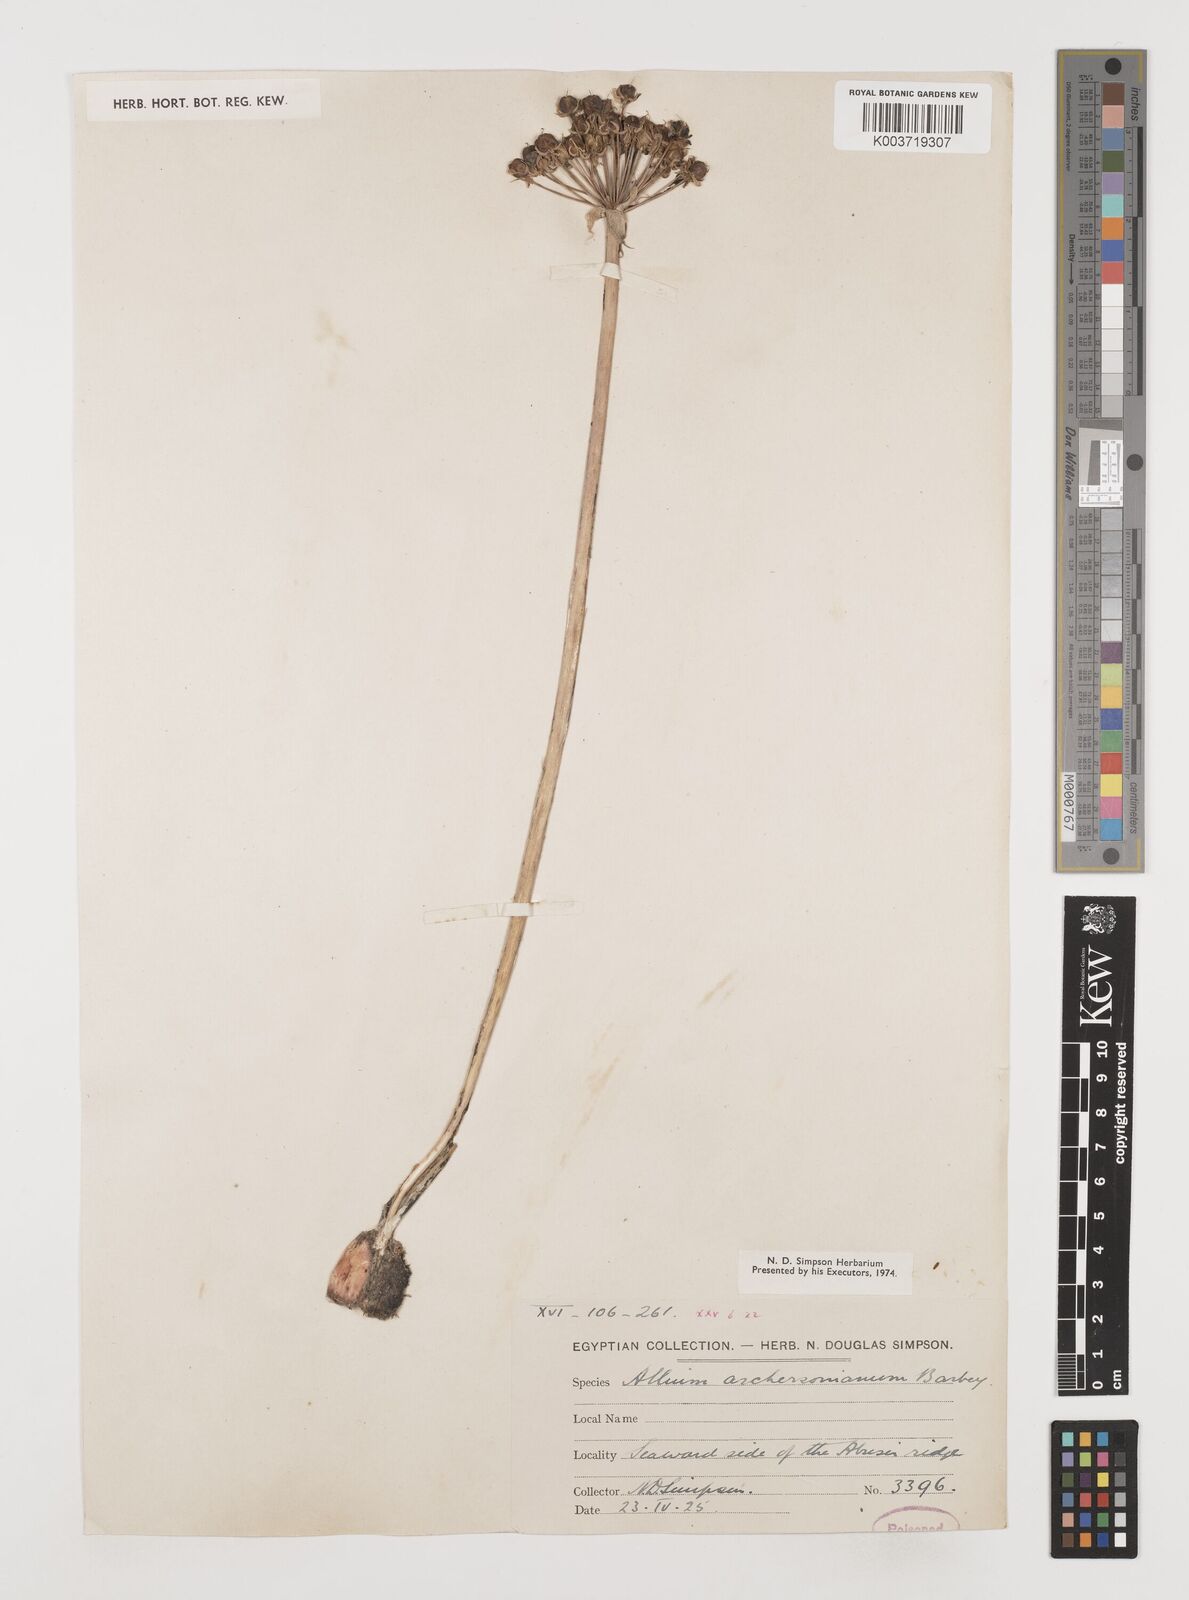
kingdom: Plantae
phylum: Tracheophyta
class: Liliopsida
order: Asparagales
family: Amaryllidaceae
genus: Allium
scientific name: Allium orientale
